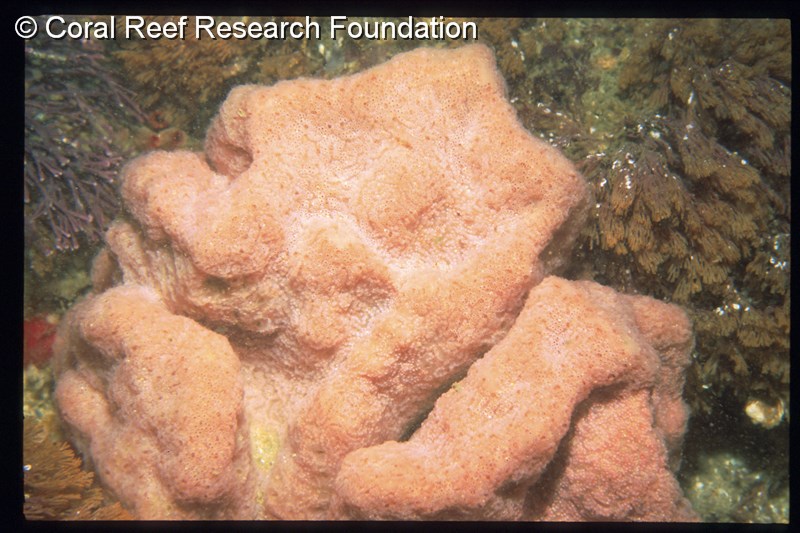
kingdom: Animalia
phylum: Chordata
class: Ascidiacea
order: Aplousobranchia
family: Polyclinidae
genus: Aplidium
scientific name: Aplidium circulatum
